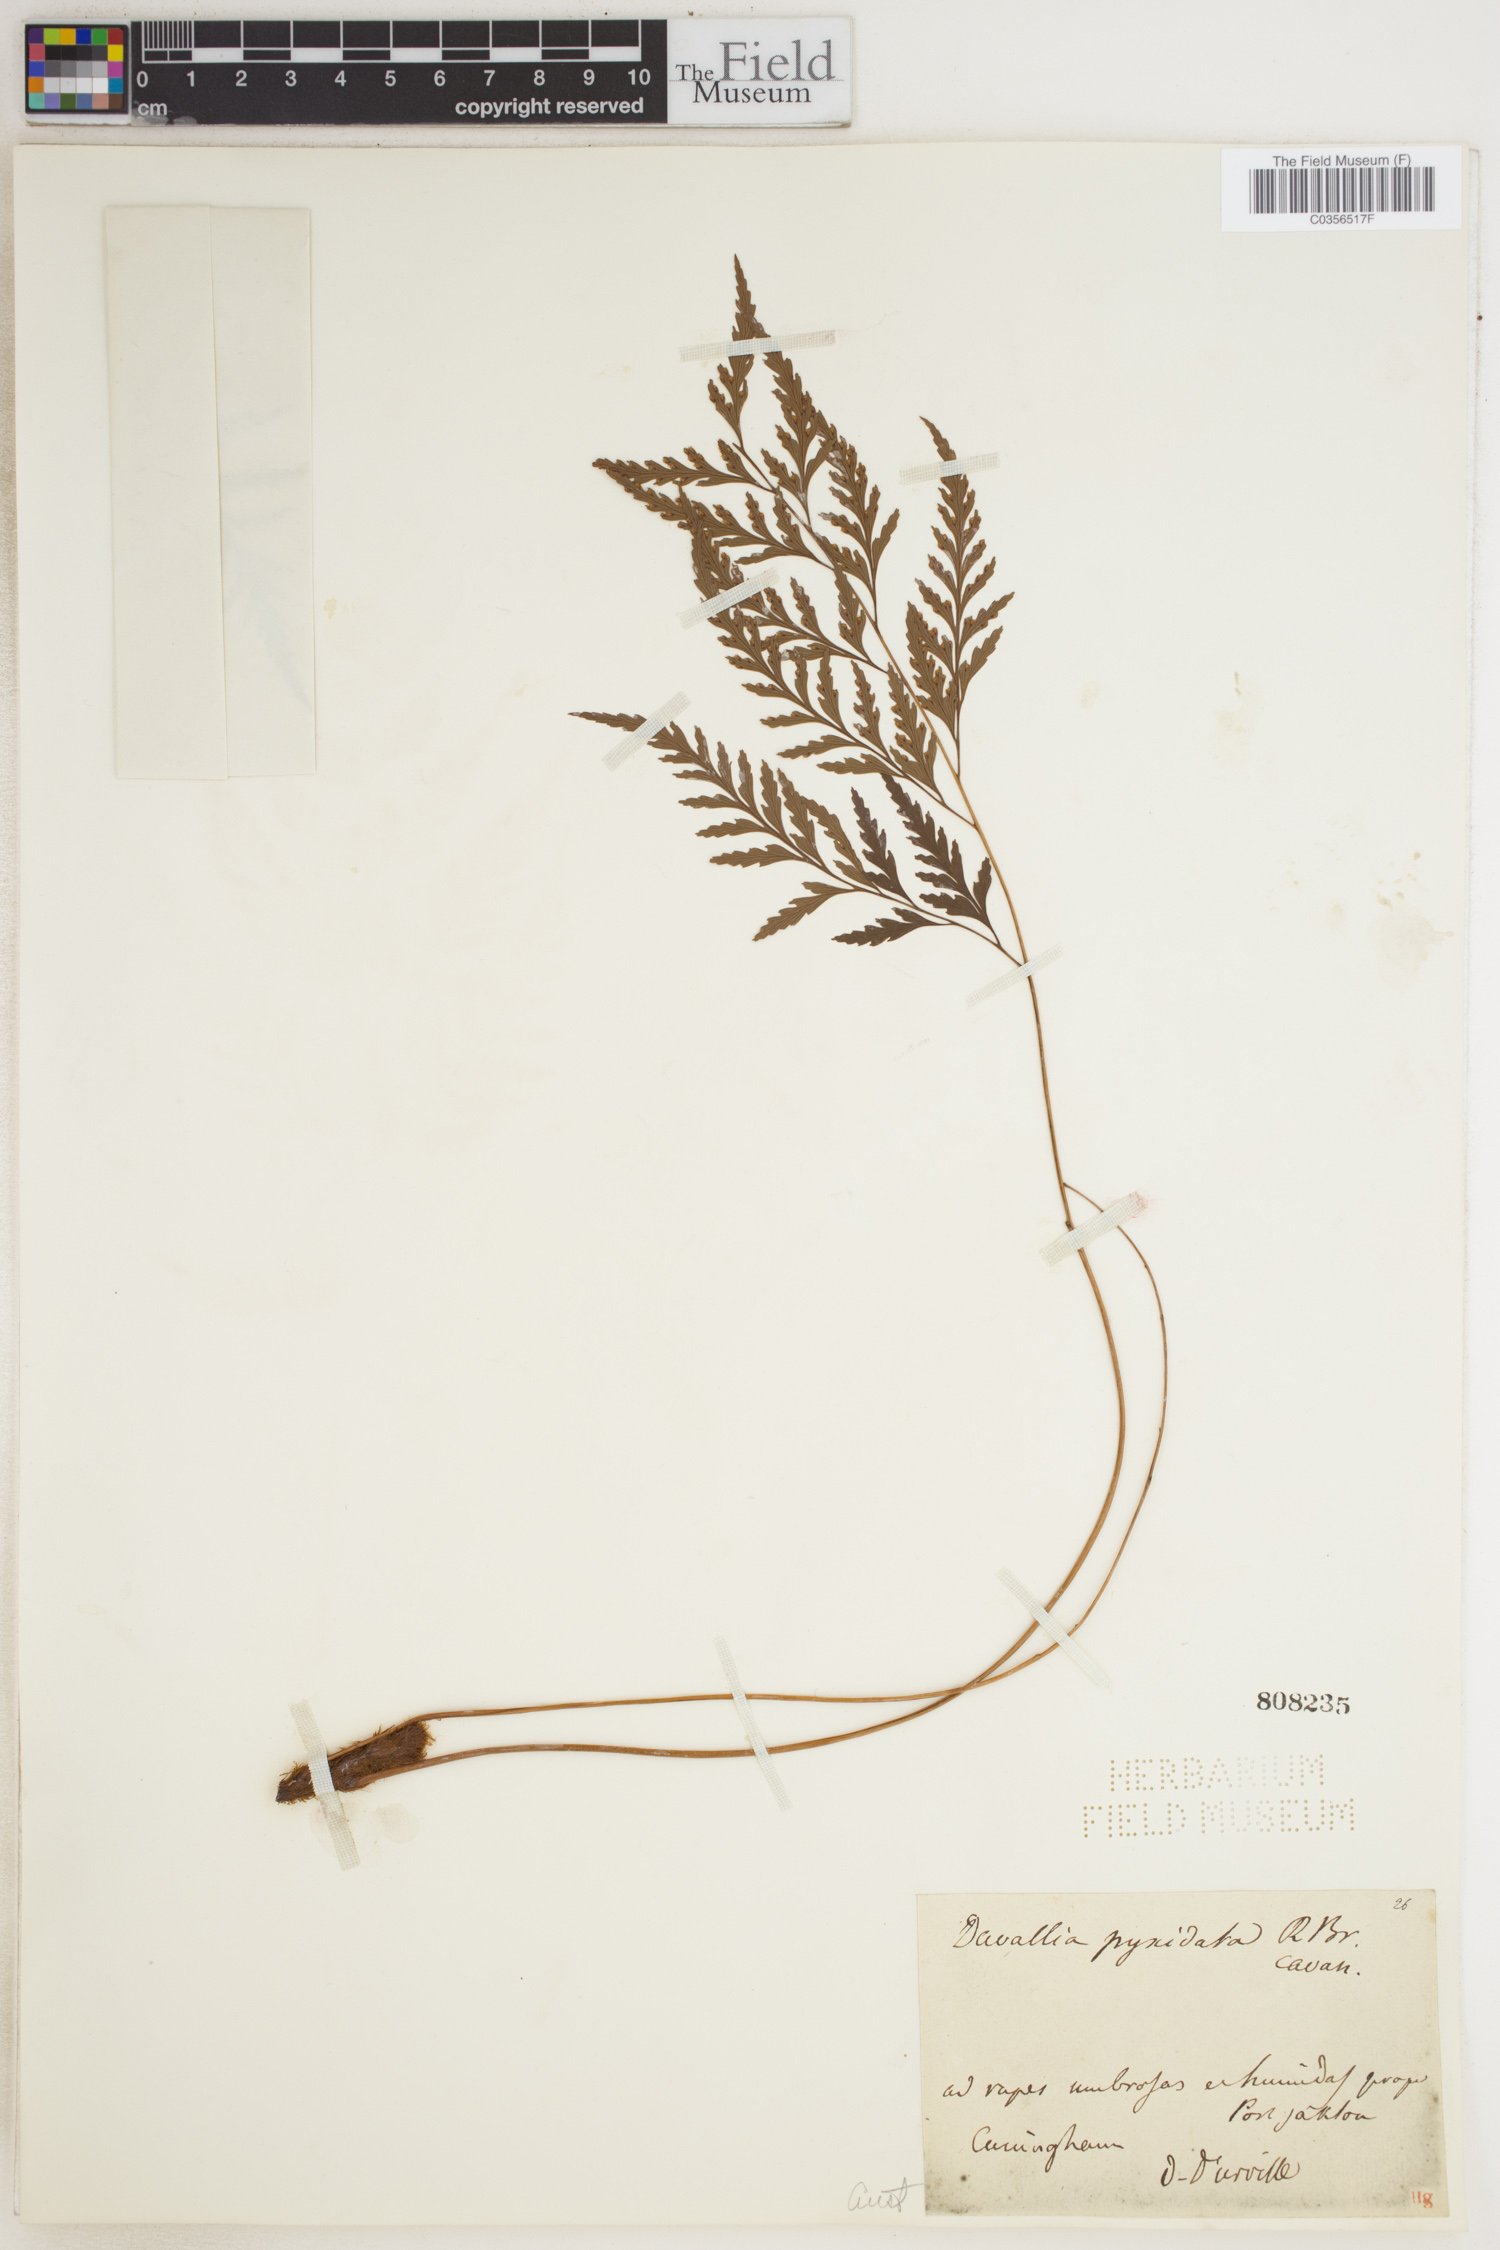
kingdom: Plantae
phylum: Tracheophyta
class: Polypodiopsida
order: Polypodiales
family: Davalliaceae
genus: Davallia
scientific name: Davallia pyxidata
